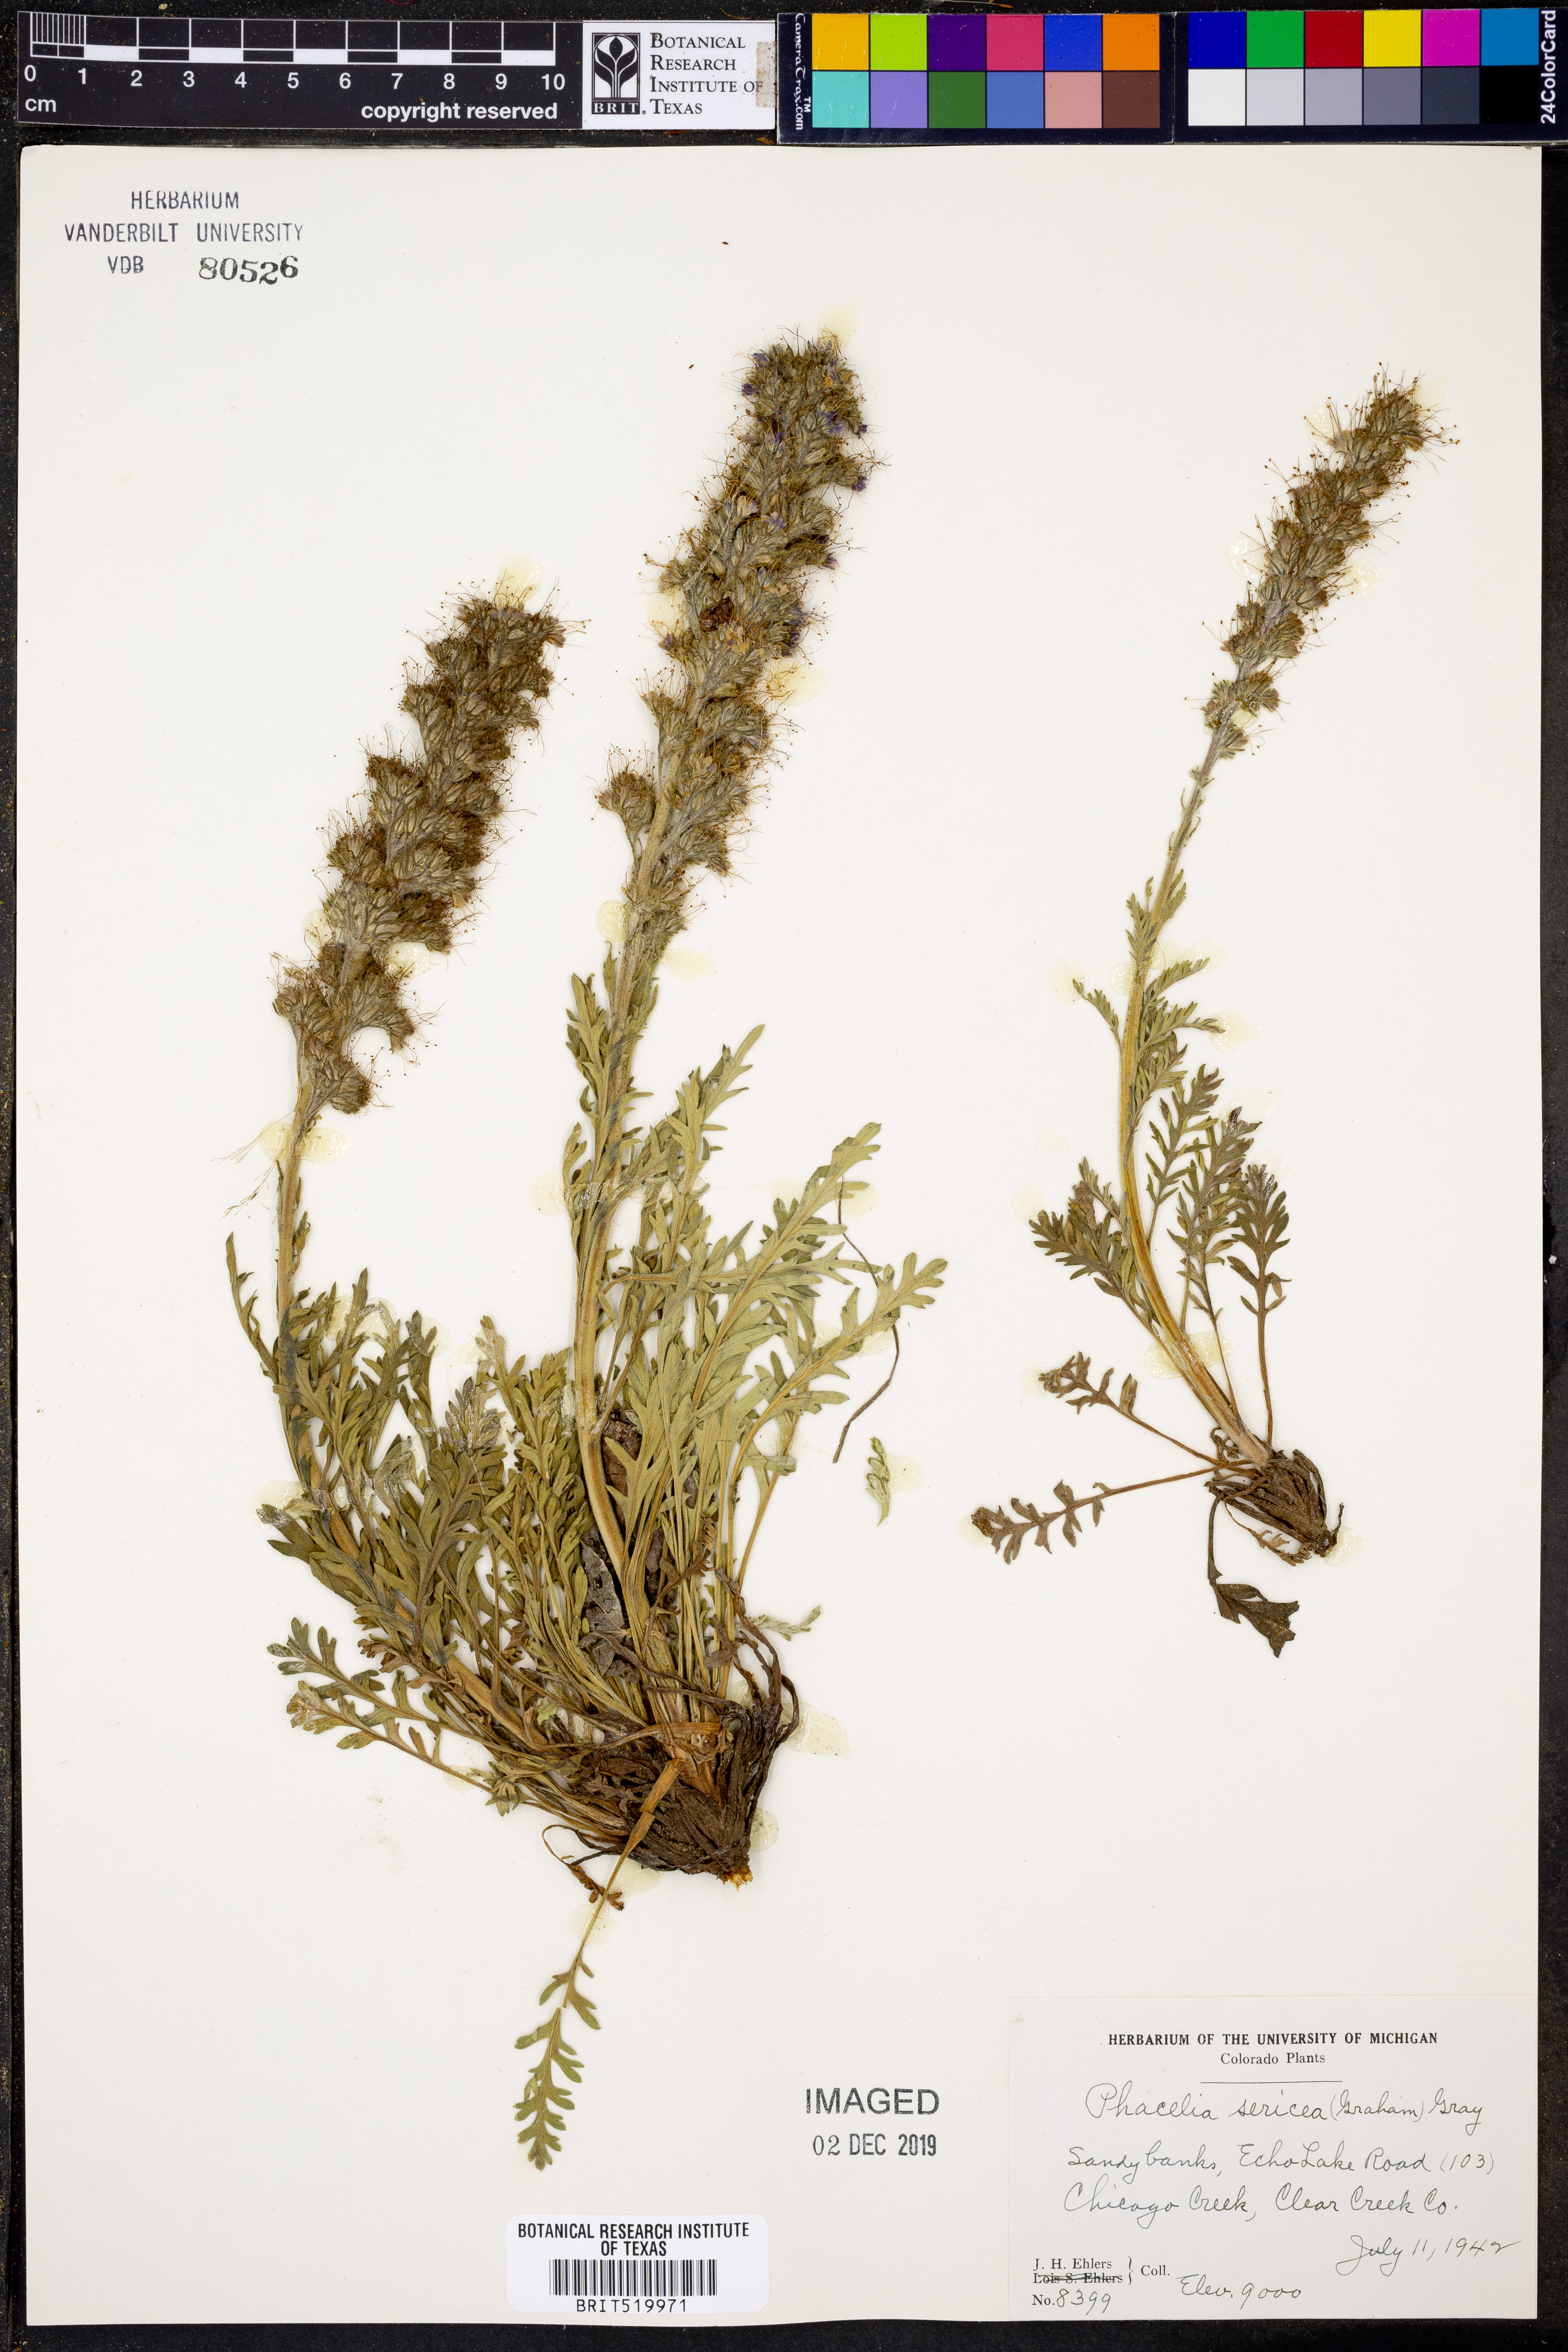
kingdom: Plantae
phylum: Tracheophyta
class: Magnoliopsida
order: Boraginales
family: Hydrophyllaceae
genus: Phacelia
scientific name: Phacelia sericea
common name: Silky phacelia
